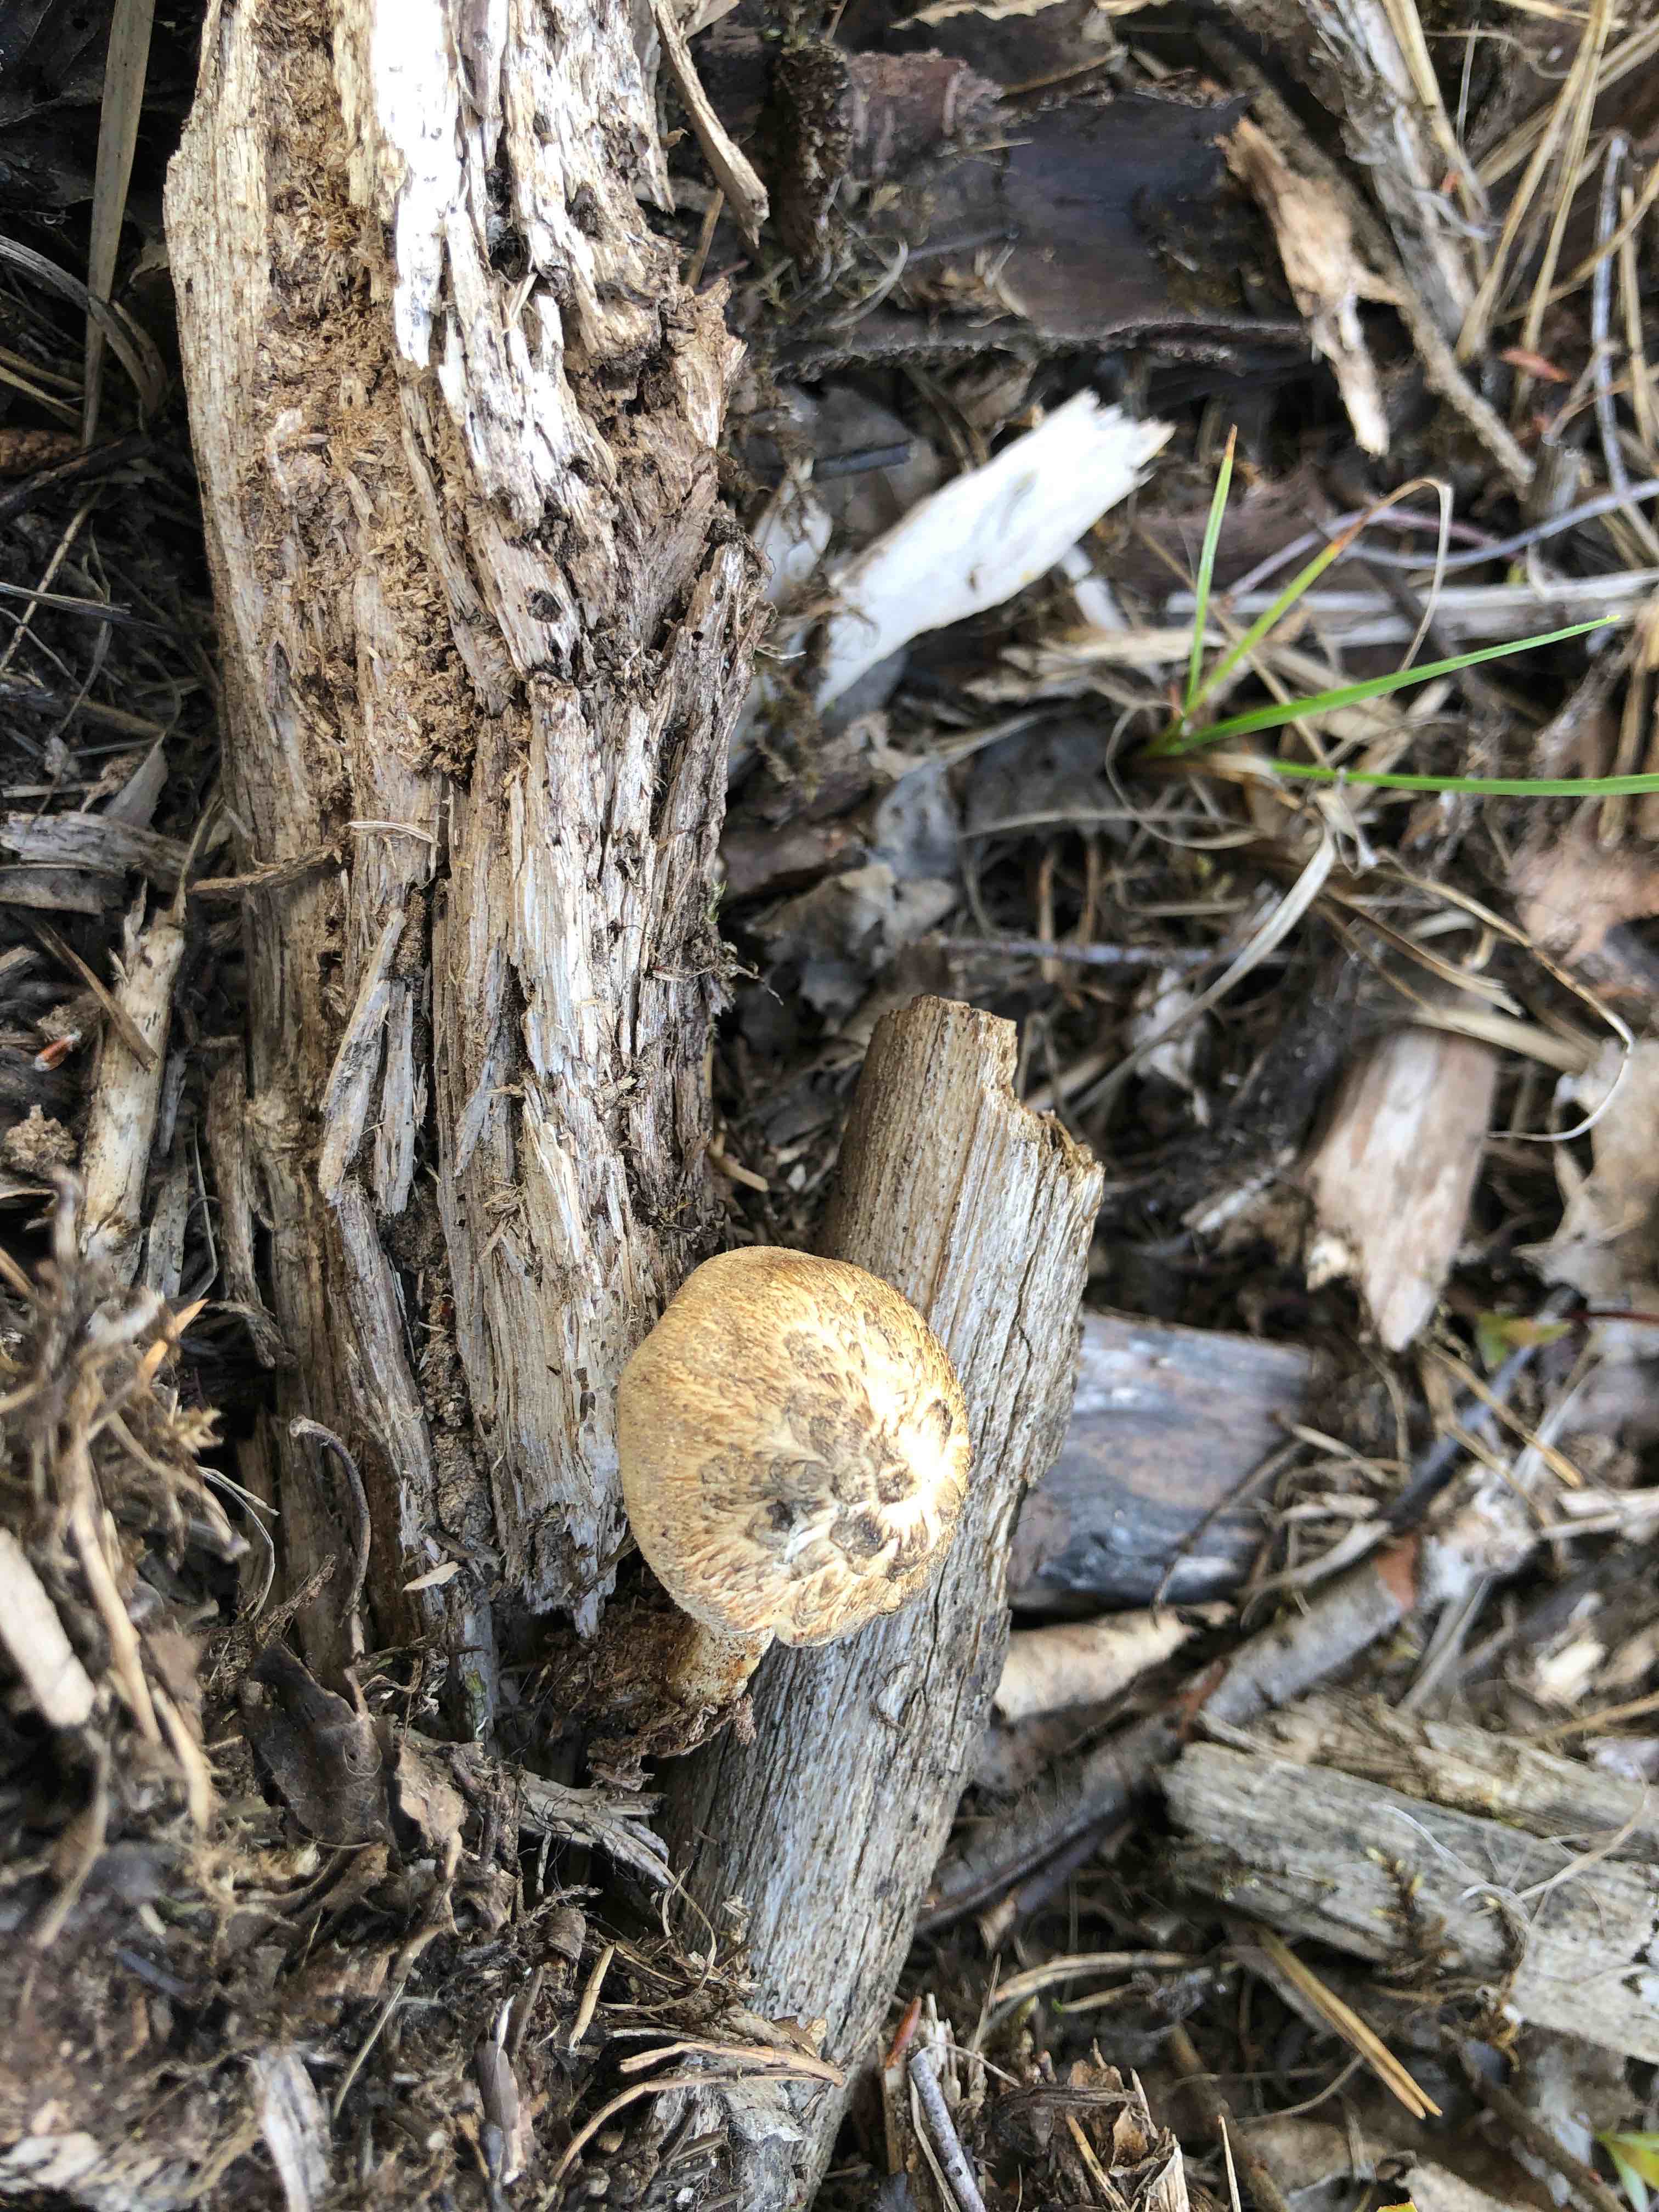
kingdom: Fungi
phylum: Basidiomycota
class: Agaricomycetes
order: Polyporales
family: Polyporaceae
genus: Lentinus
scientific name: Lentinus substrictus
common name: forårs-stilkporesvamp
